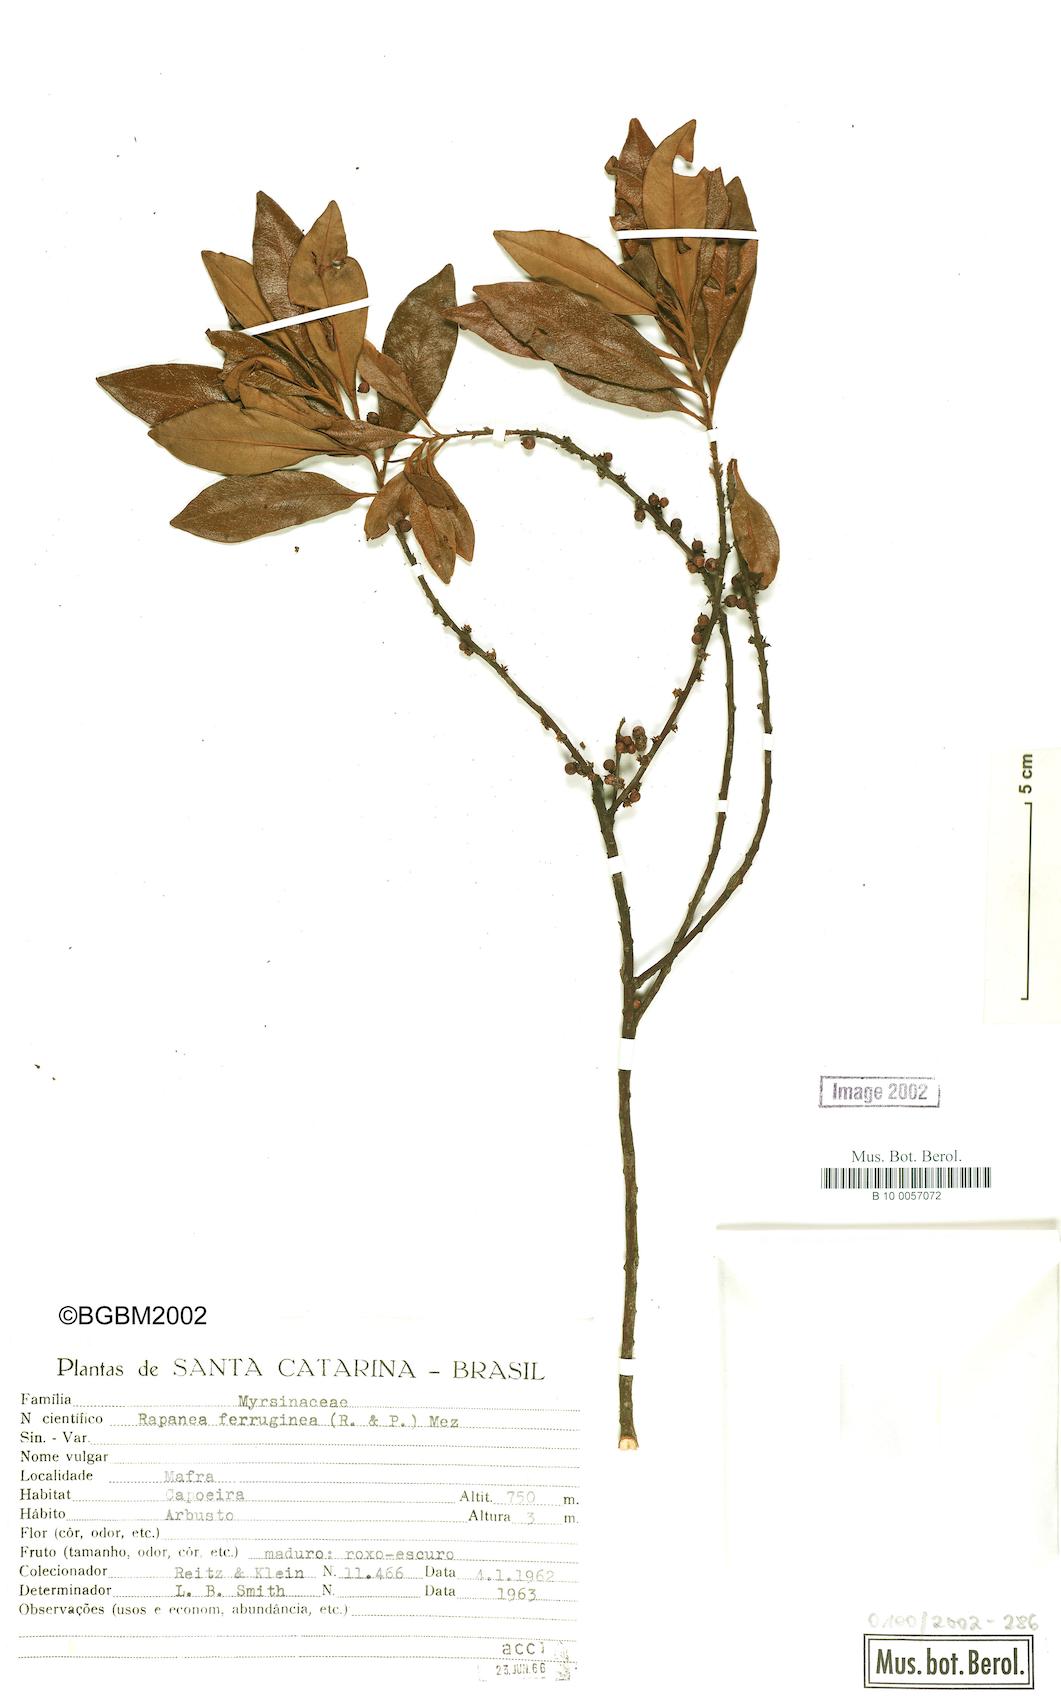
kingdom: Plantae
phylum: Tracheophyta
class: Magnoliopsida
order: Ericales
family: Primulaceae
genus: Myrsine
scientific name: Myrsine coriacea
